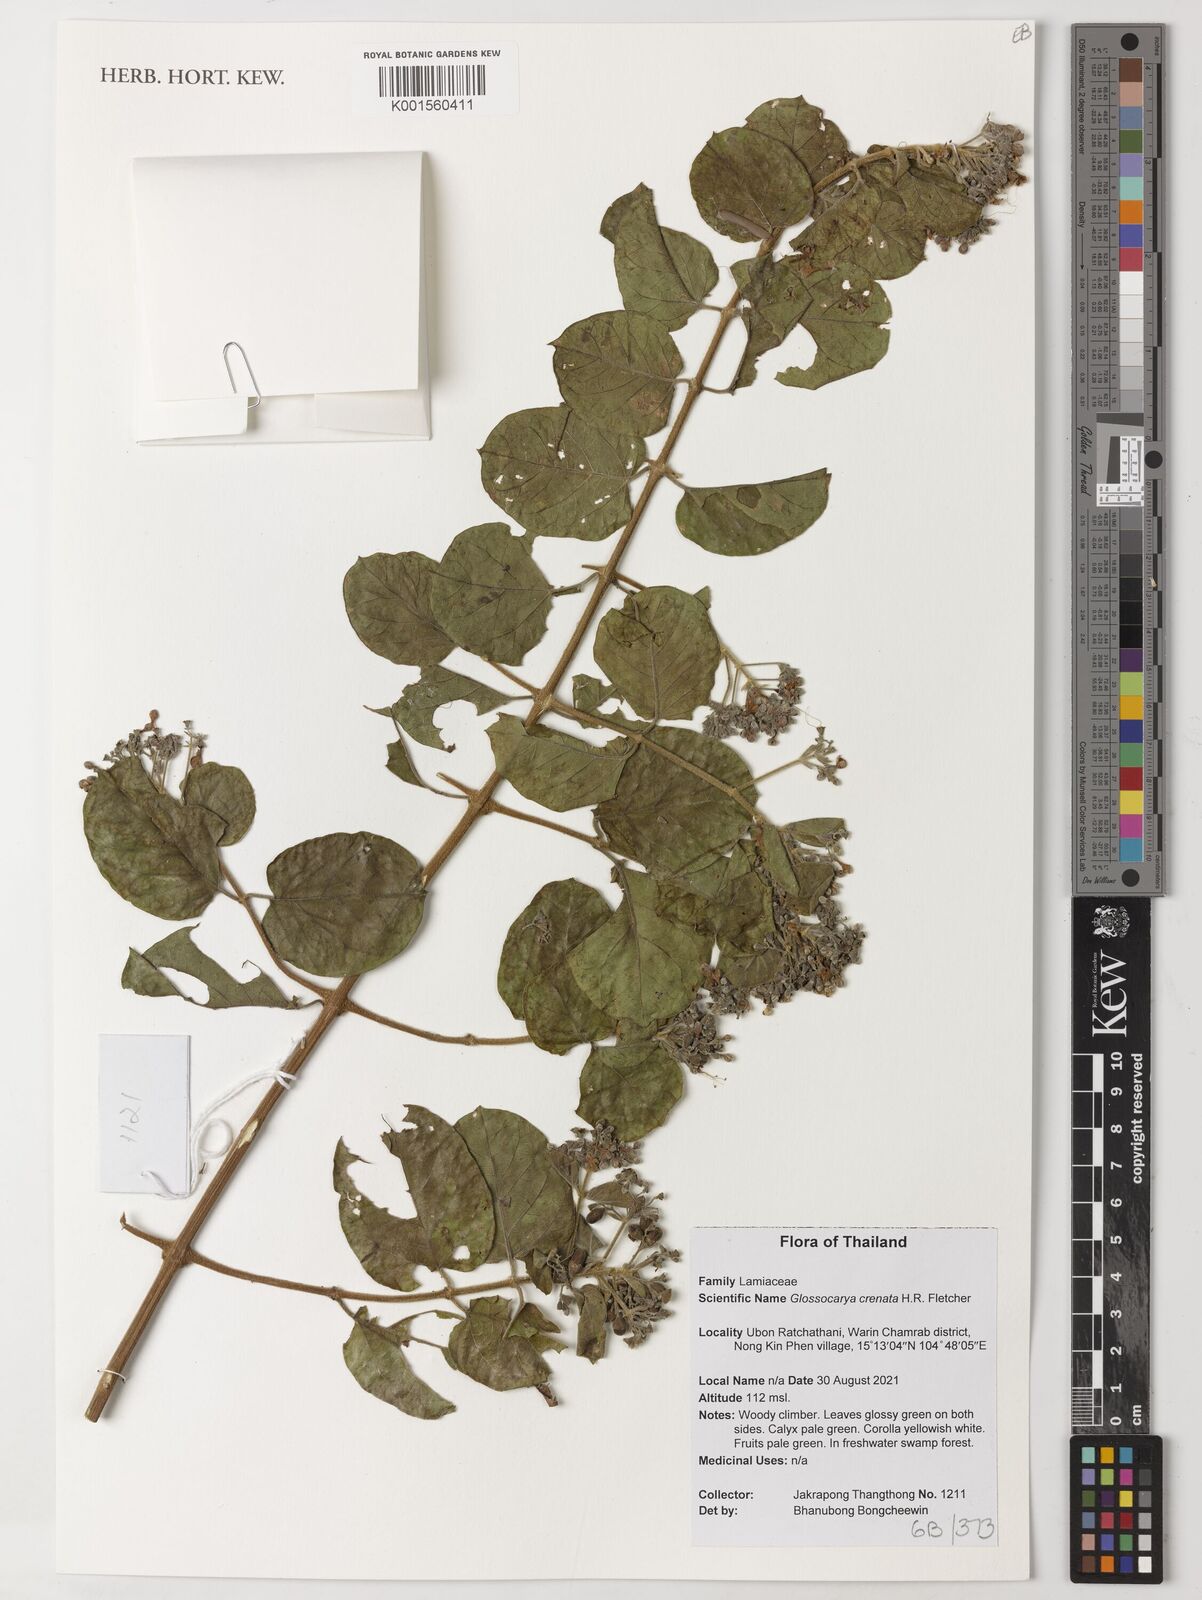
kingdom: Plantae
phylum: Tracheophyta
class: Magnoliopsida
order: Lamiales
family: Lamiaceae
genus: Glossocarya
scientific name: Glossocarya crenata
